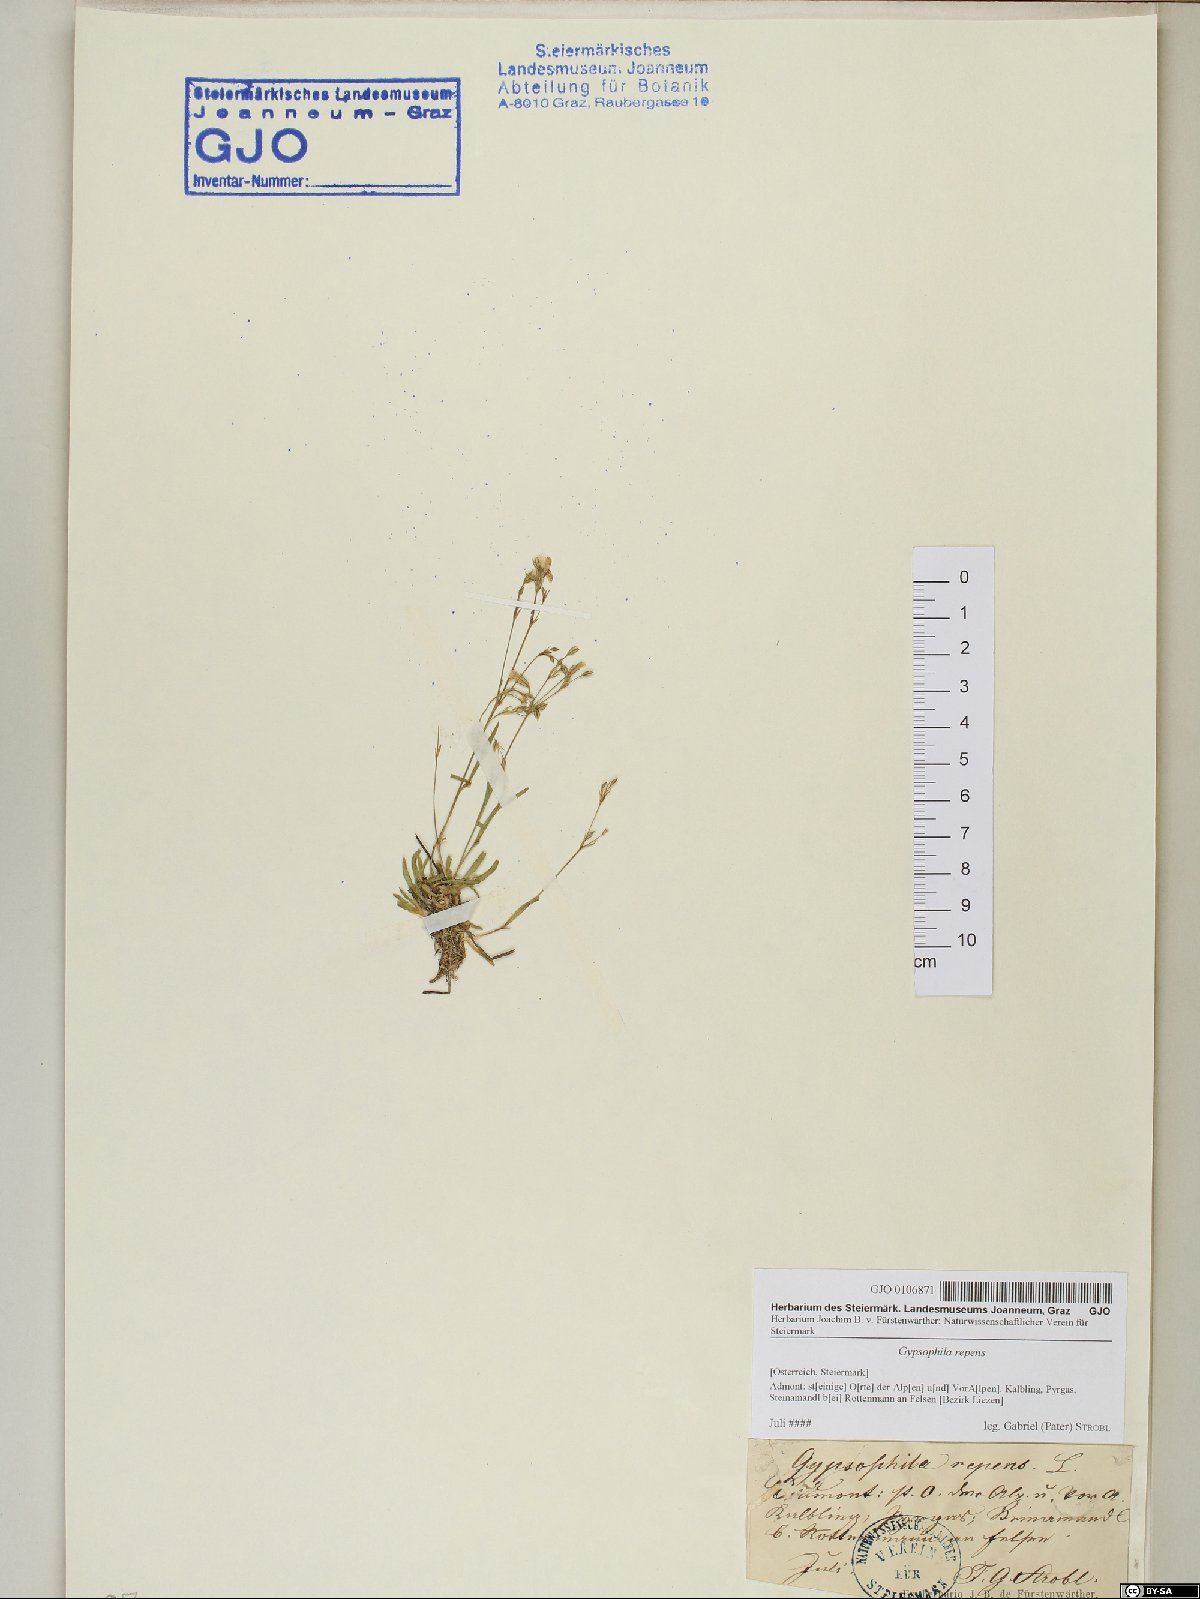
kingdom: Plantae
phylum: Tracheophyta
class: Magnoliopsida
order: Caryophyllales
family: Caryophyllaceae
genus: Gypsophila
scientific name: Gypsophila repens
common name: Creeping baby's-breath
